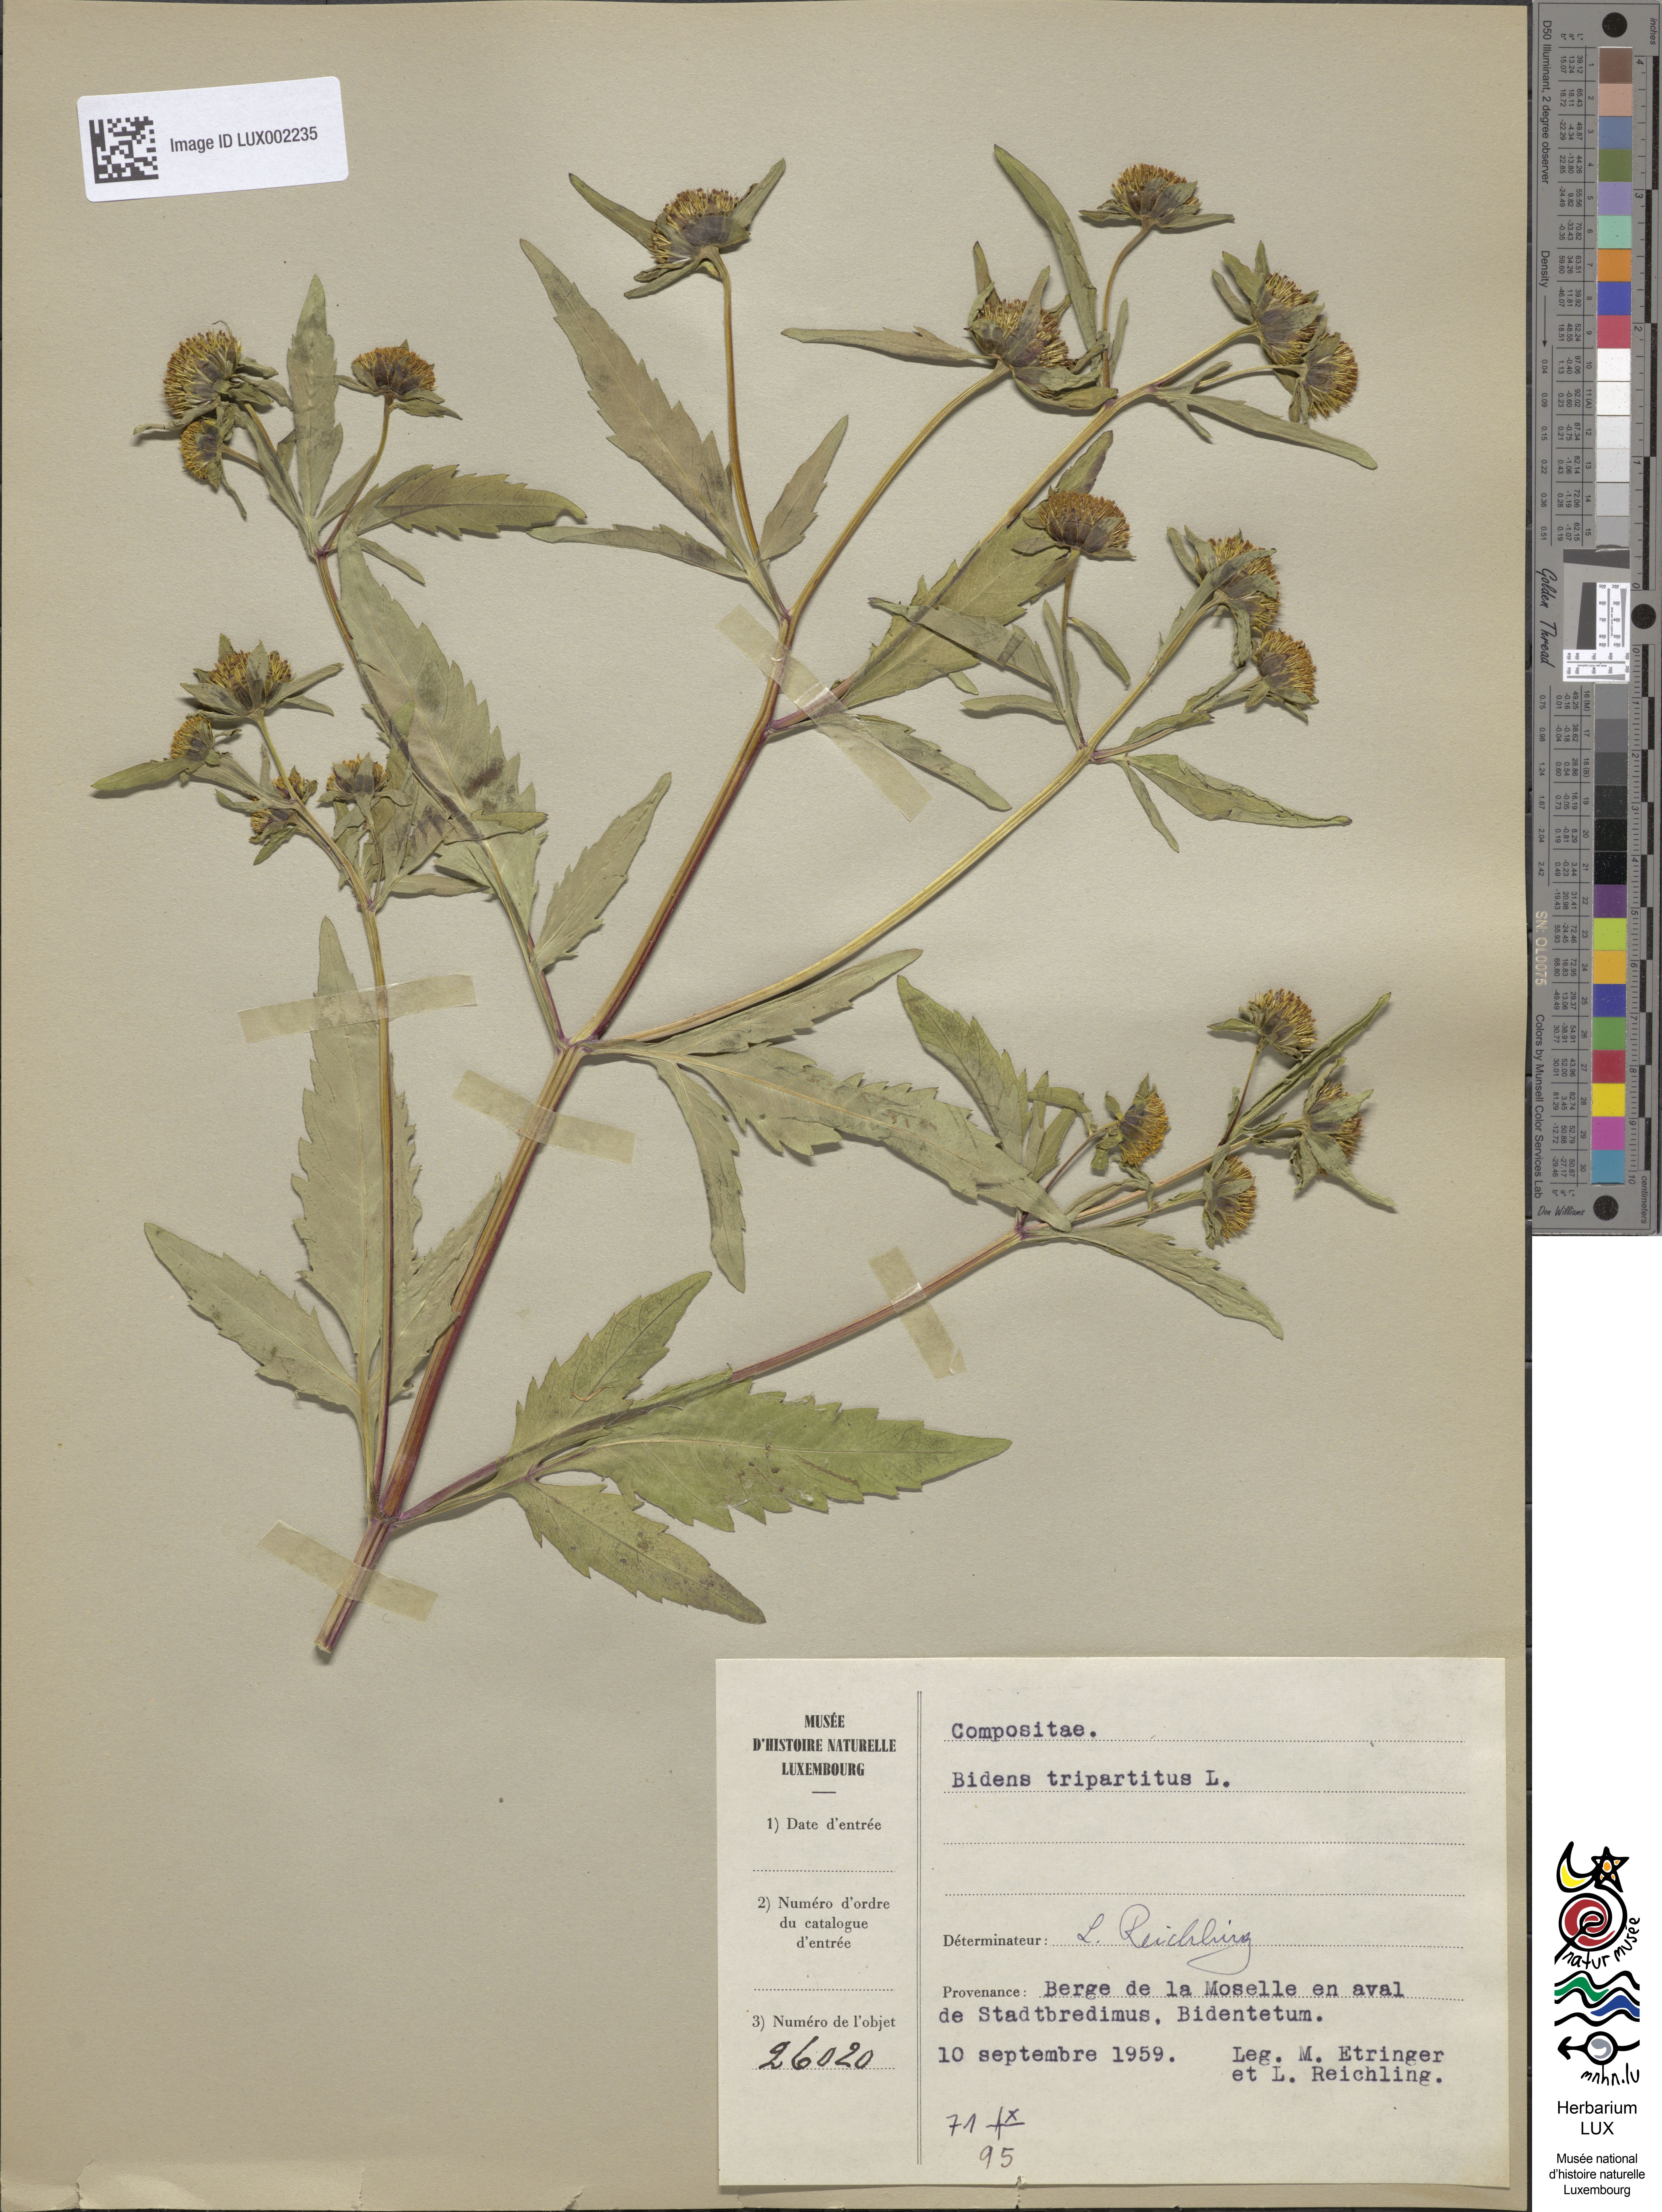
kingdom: Plantae
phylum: Tracheophyta
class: Magnoliopsida
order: Asterales
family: Asteraceae
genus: Bidens
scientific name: Bidens tripartita
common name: Trifid bur-marigold
